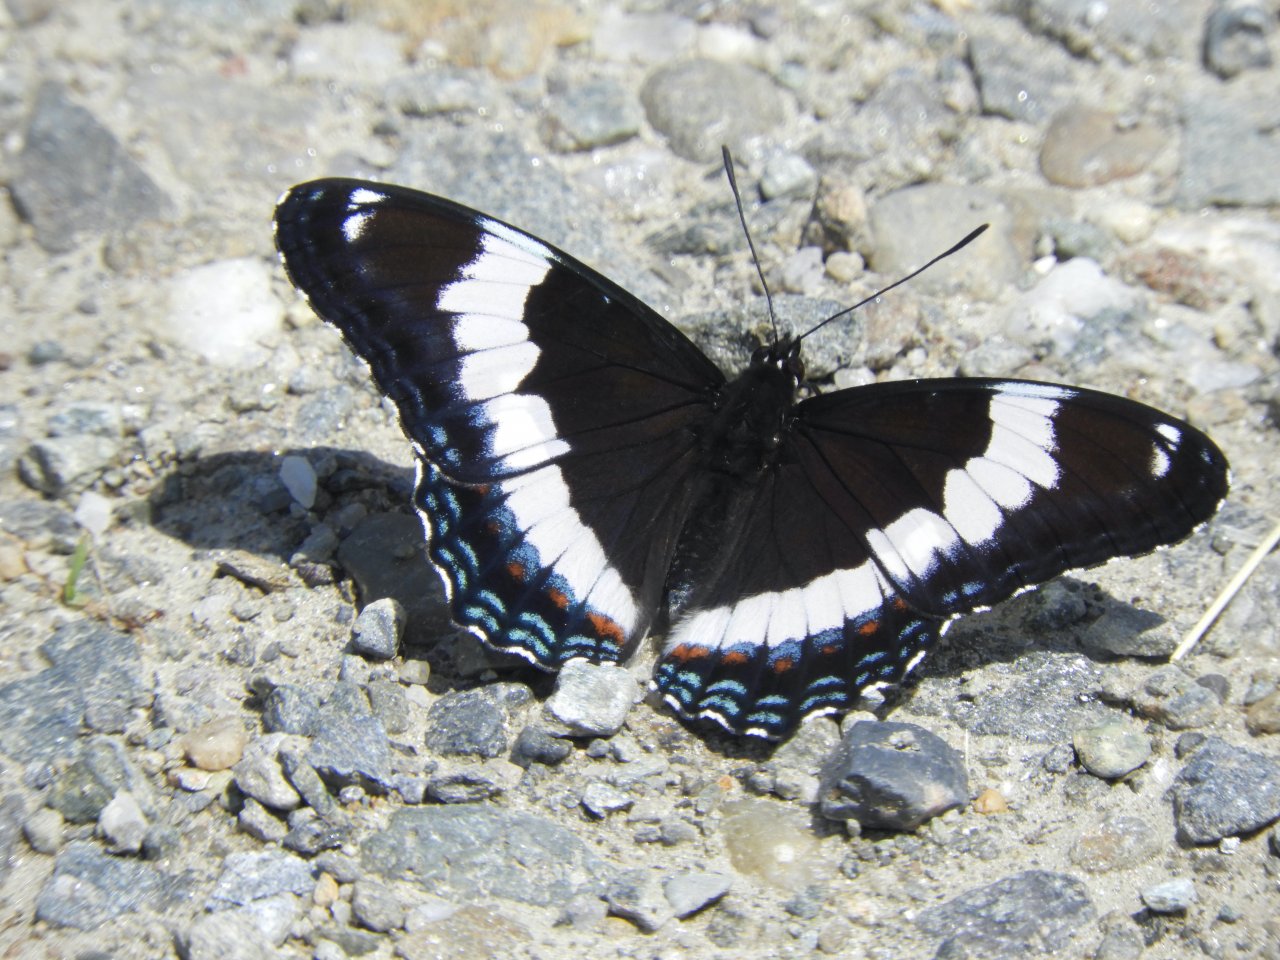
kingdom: Animalia
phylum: Arthropoda
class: Insecta
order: Lepidoptera
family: Nymphalidae
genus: Limenitis
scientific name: Limenitis arthemis
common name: Red-spotted Admiral
